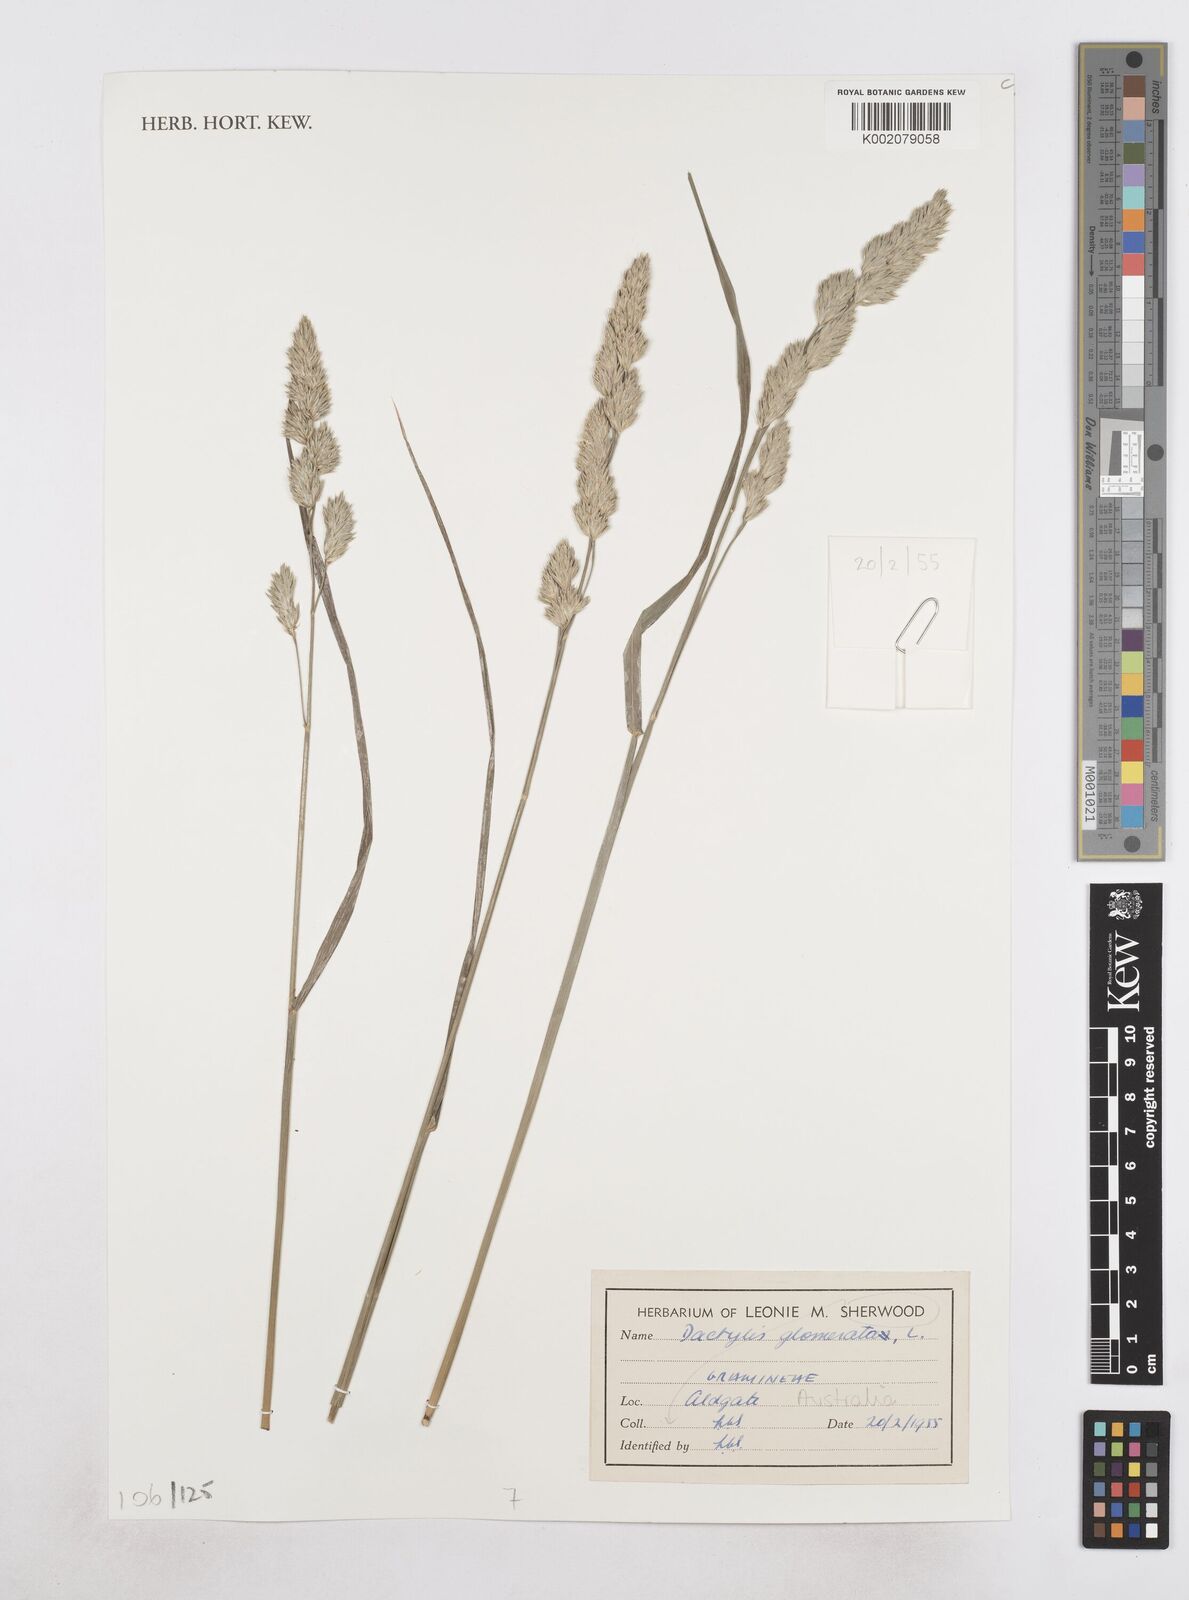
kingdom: Plantae
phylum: Tracheophyta
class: Liliopsida
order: Poales
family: Poaceae
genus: Dactylis
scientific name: Dactylis glomerata
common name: Orchardgrass
